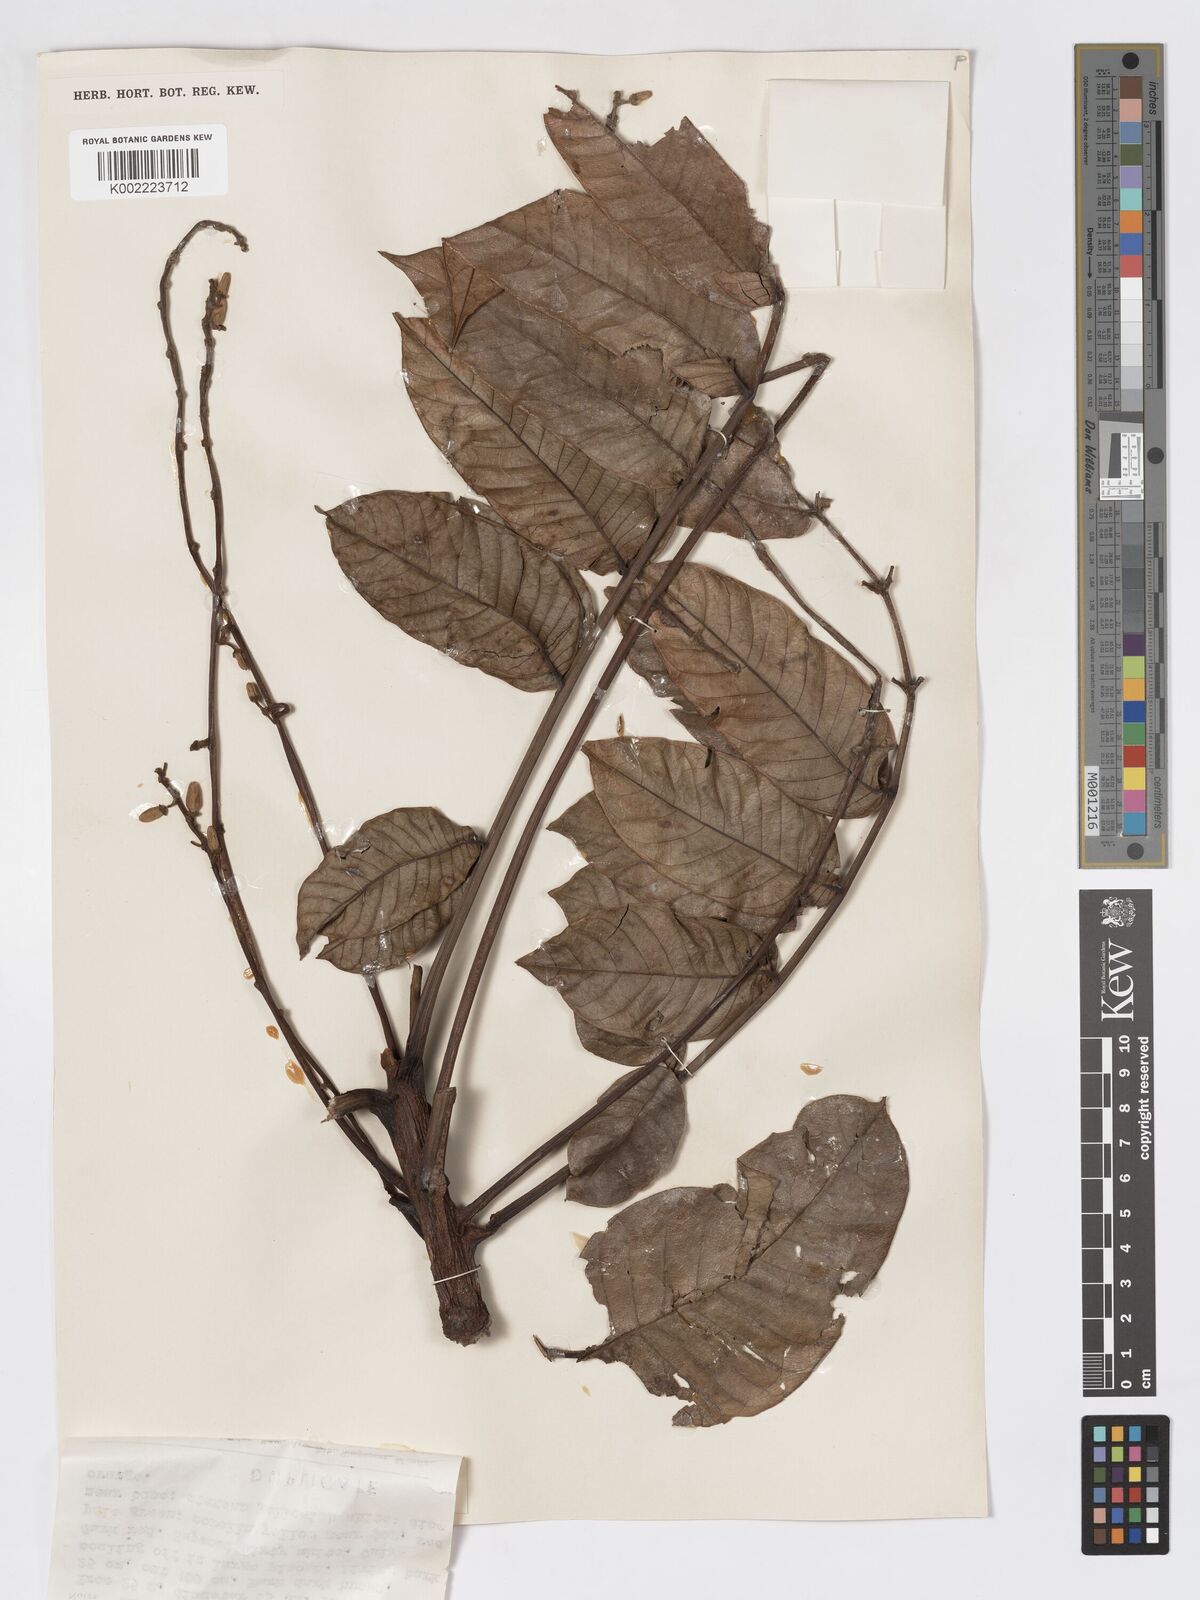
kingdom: Plantae
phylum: Tracheophyta
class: Magnoliopsida
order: Sapindales
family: Burseraceae
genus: Canarium
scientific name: Canarium hirsutum
